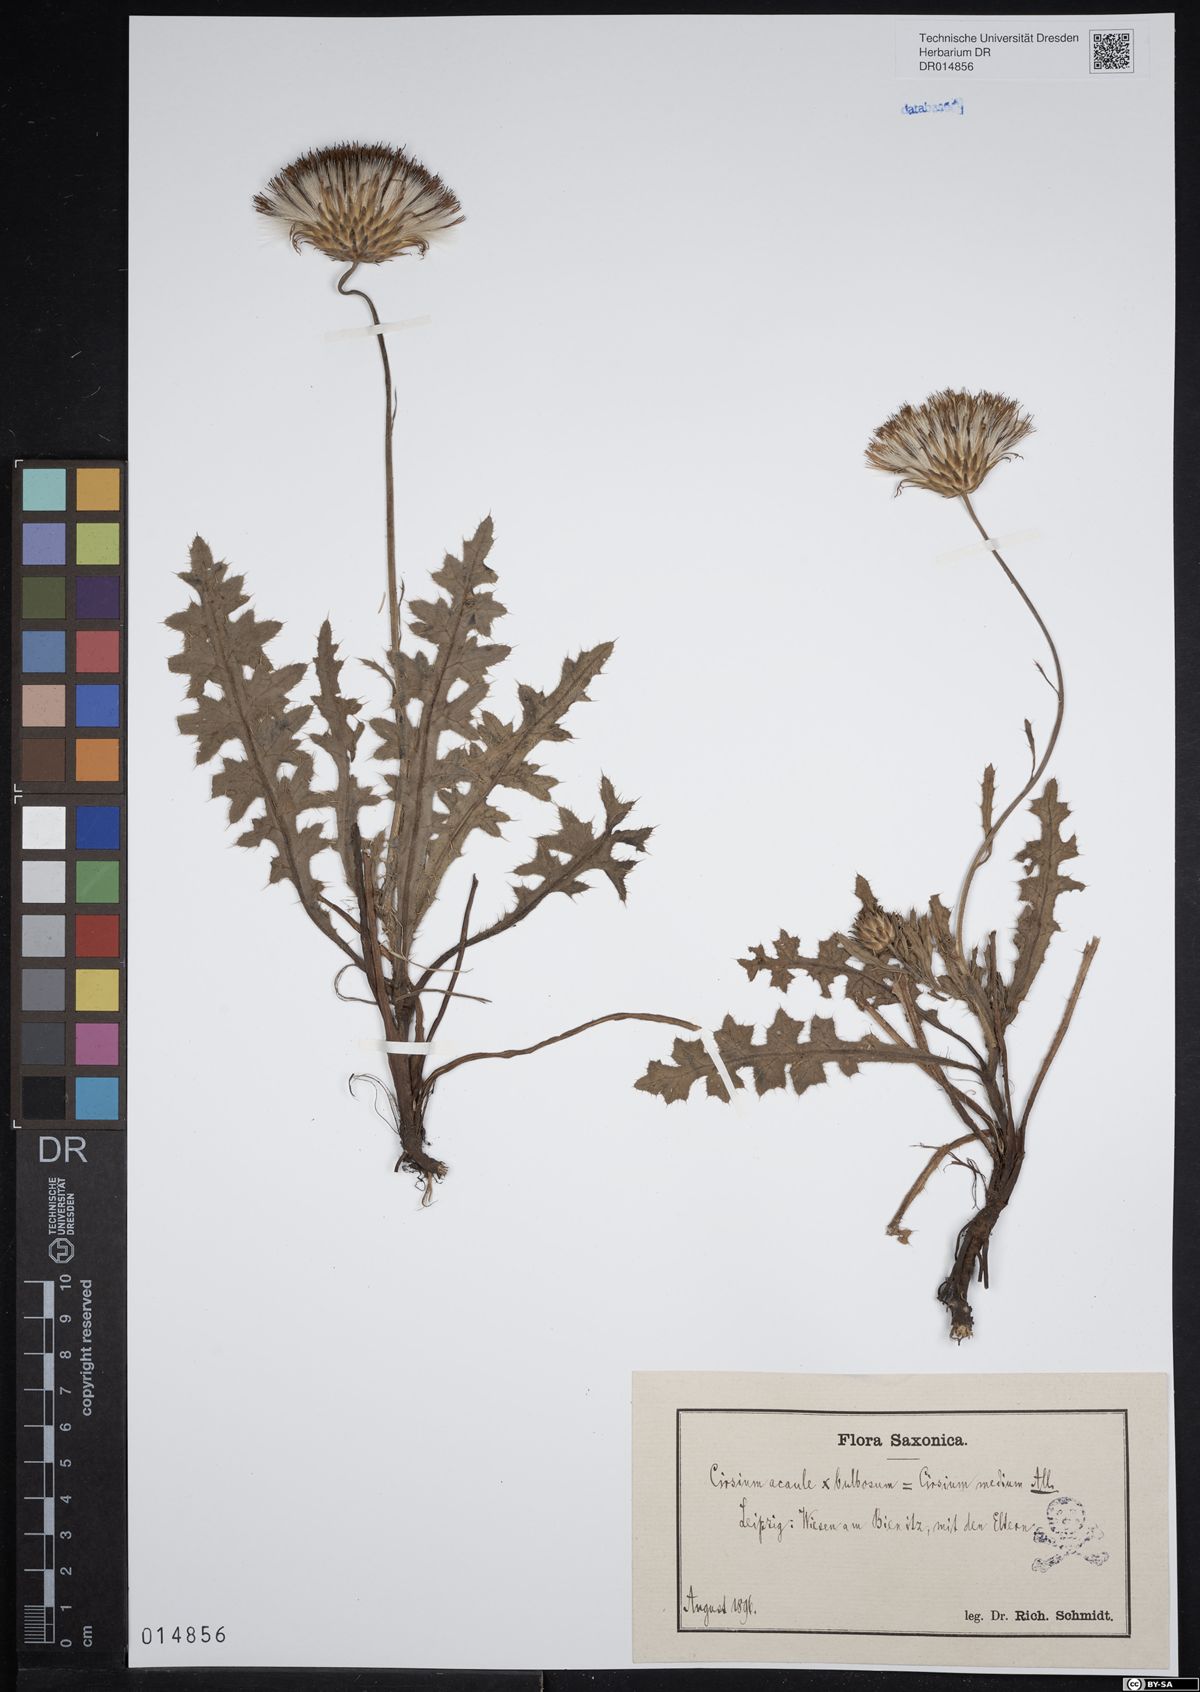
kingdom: Plantae
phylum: Tracheophyta
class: Magnoliopsida
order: Asterales
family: Asteraceae
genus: Cirsium
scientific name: Cirsium medium
